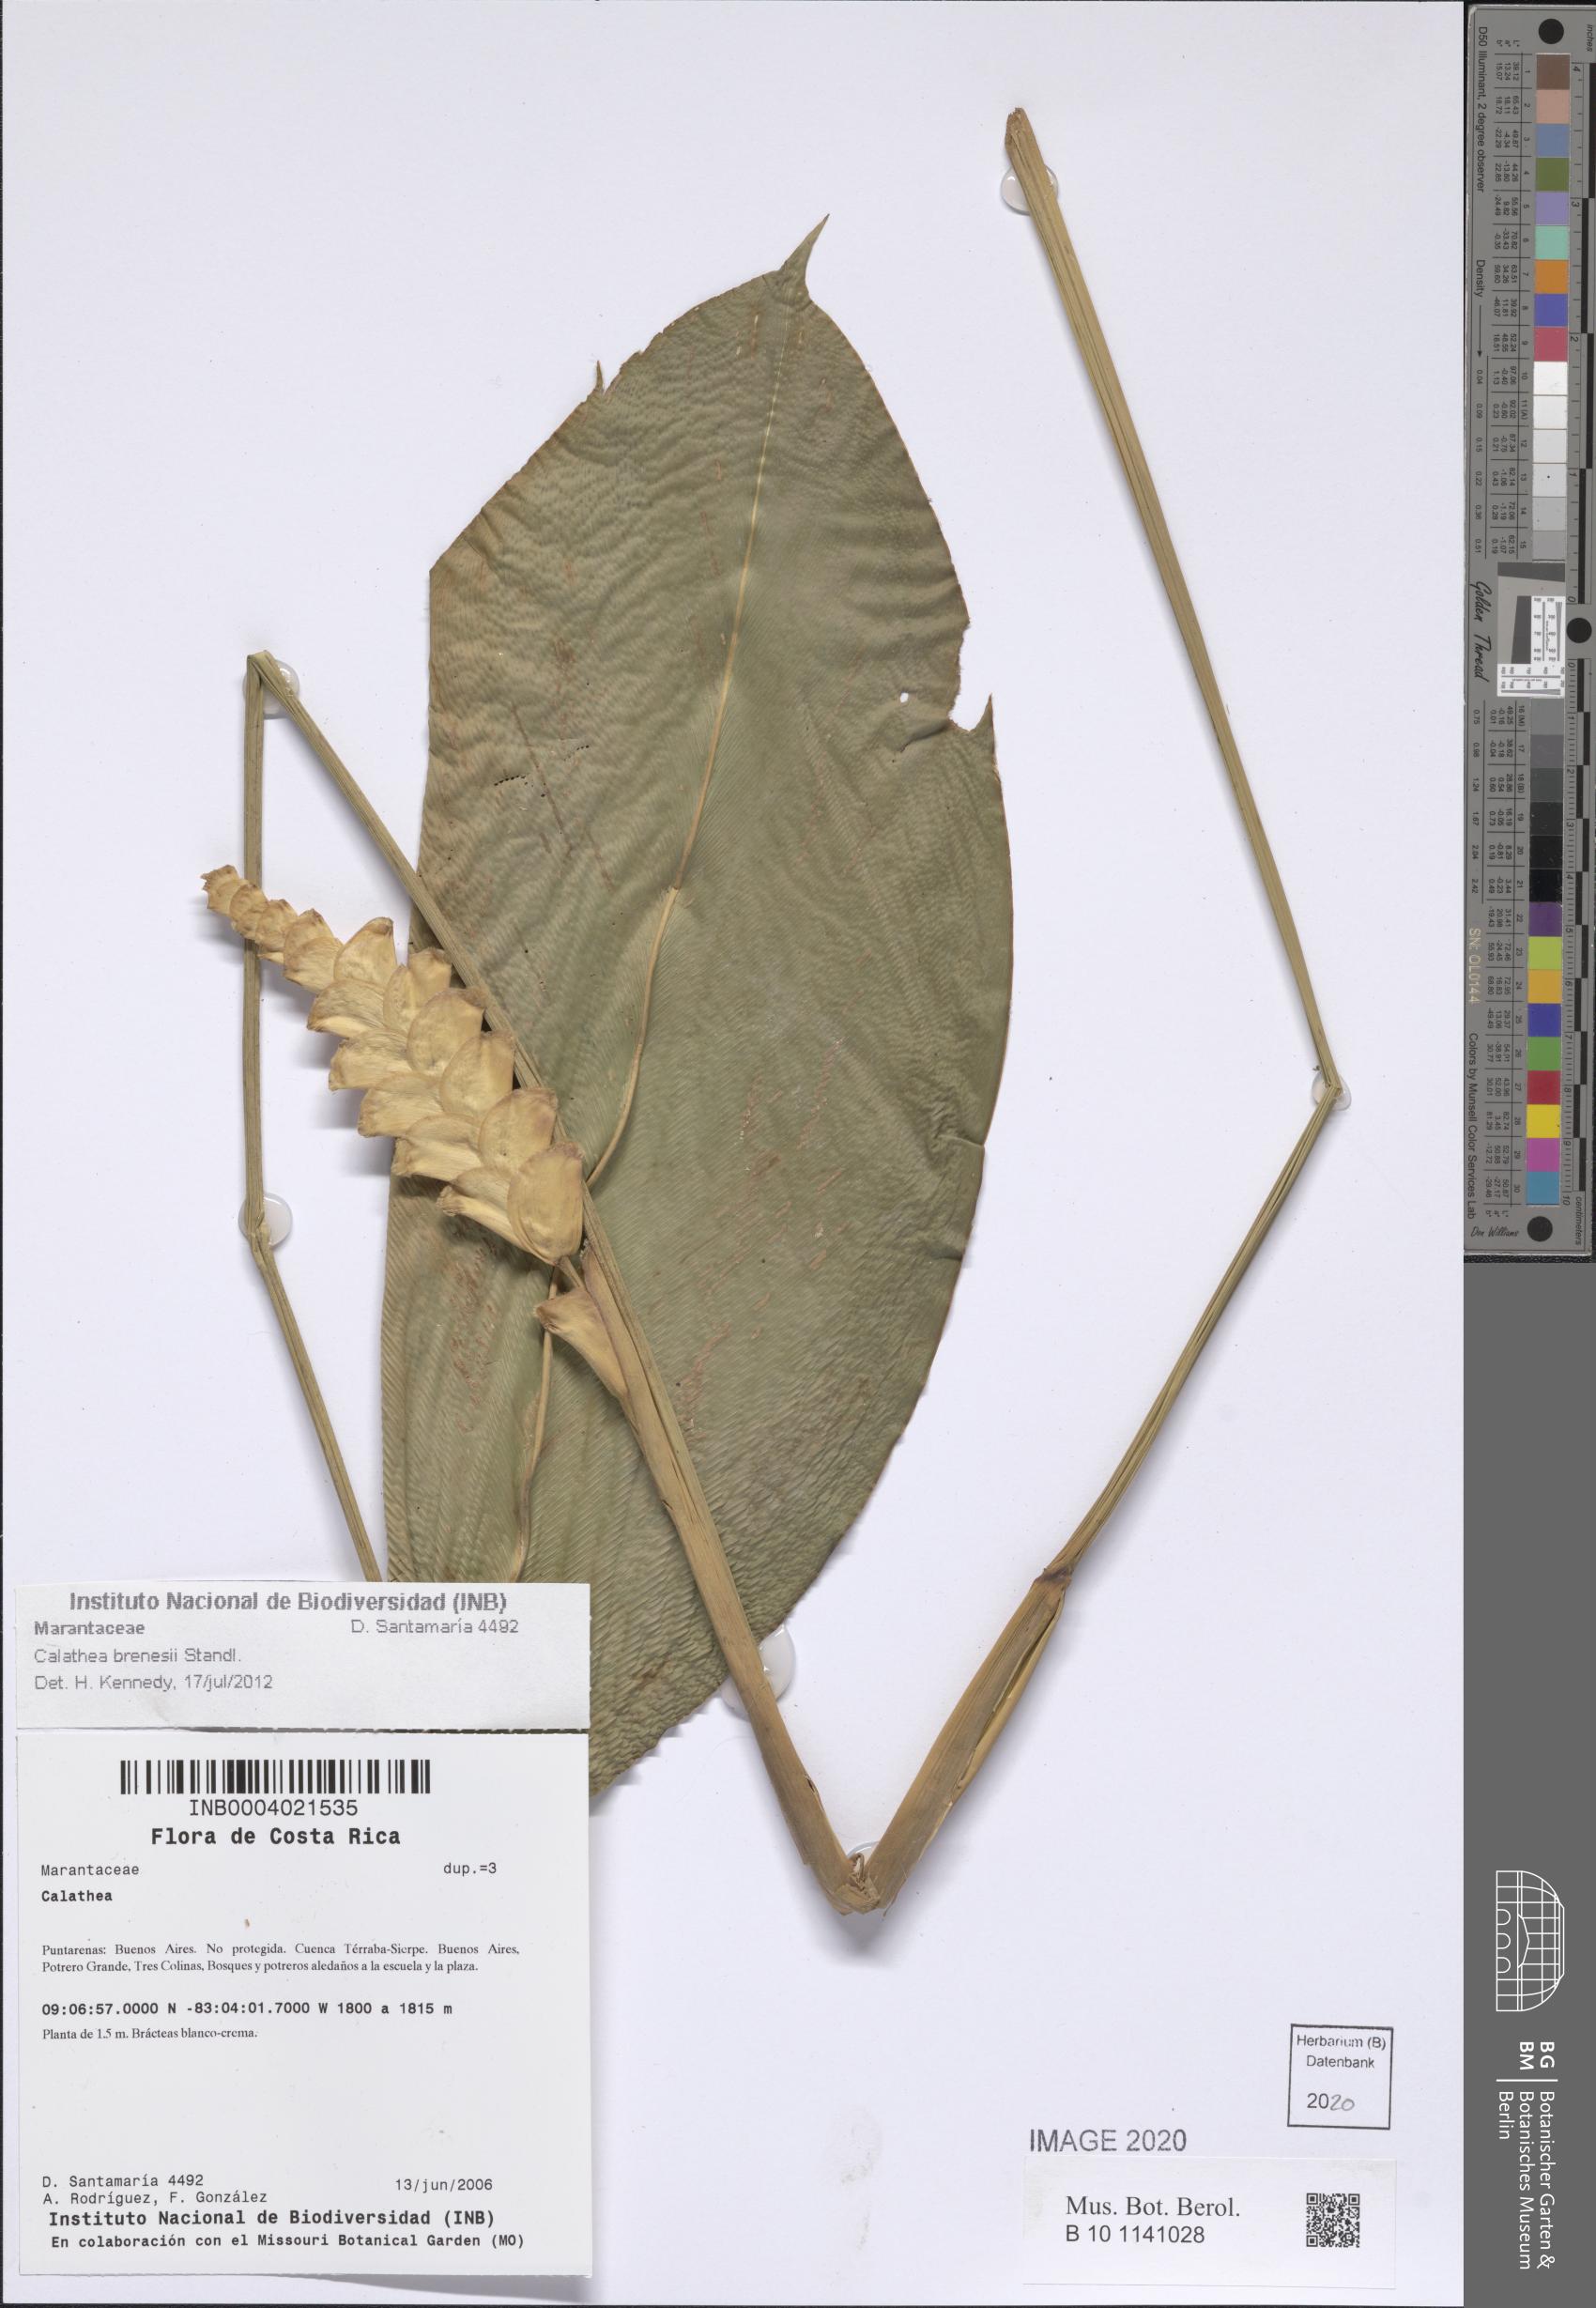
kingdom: Plantae
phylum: Tracheophyta
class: Liliopsida
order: Zingiberales
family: Marantaceae
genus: Calathea
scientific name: Calathea brenesii
